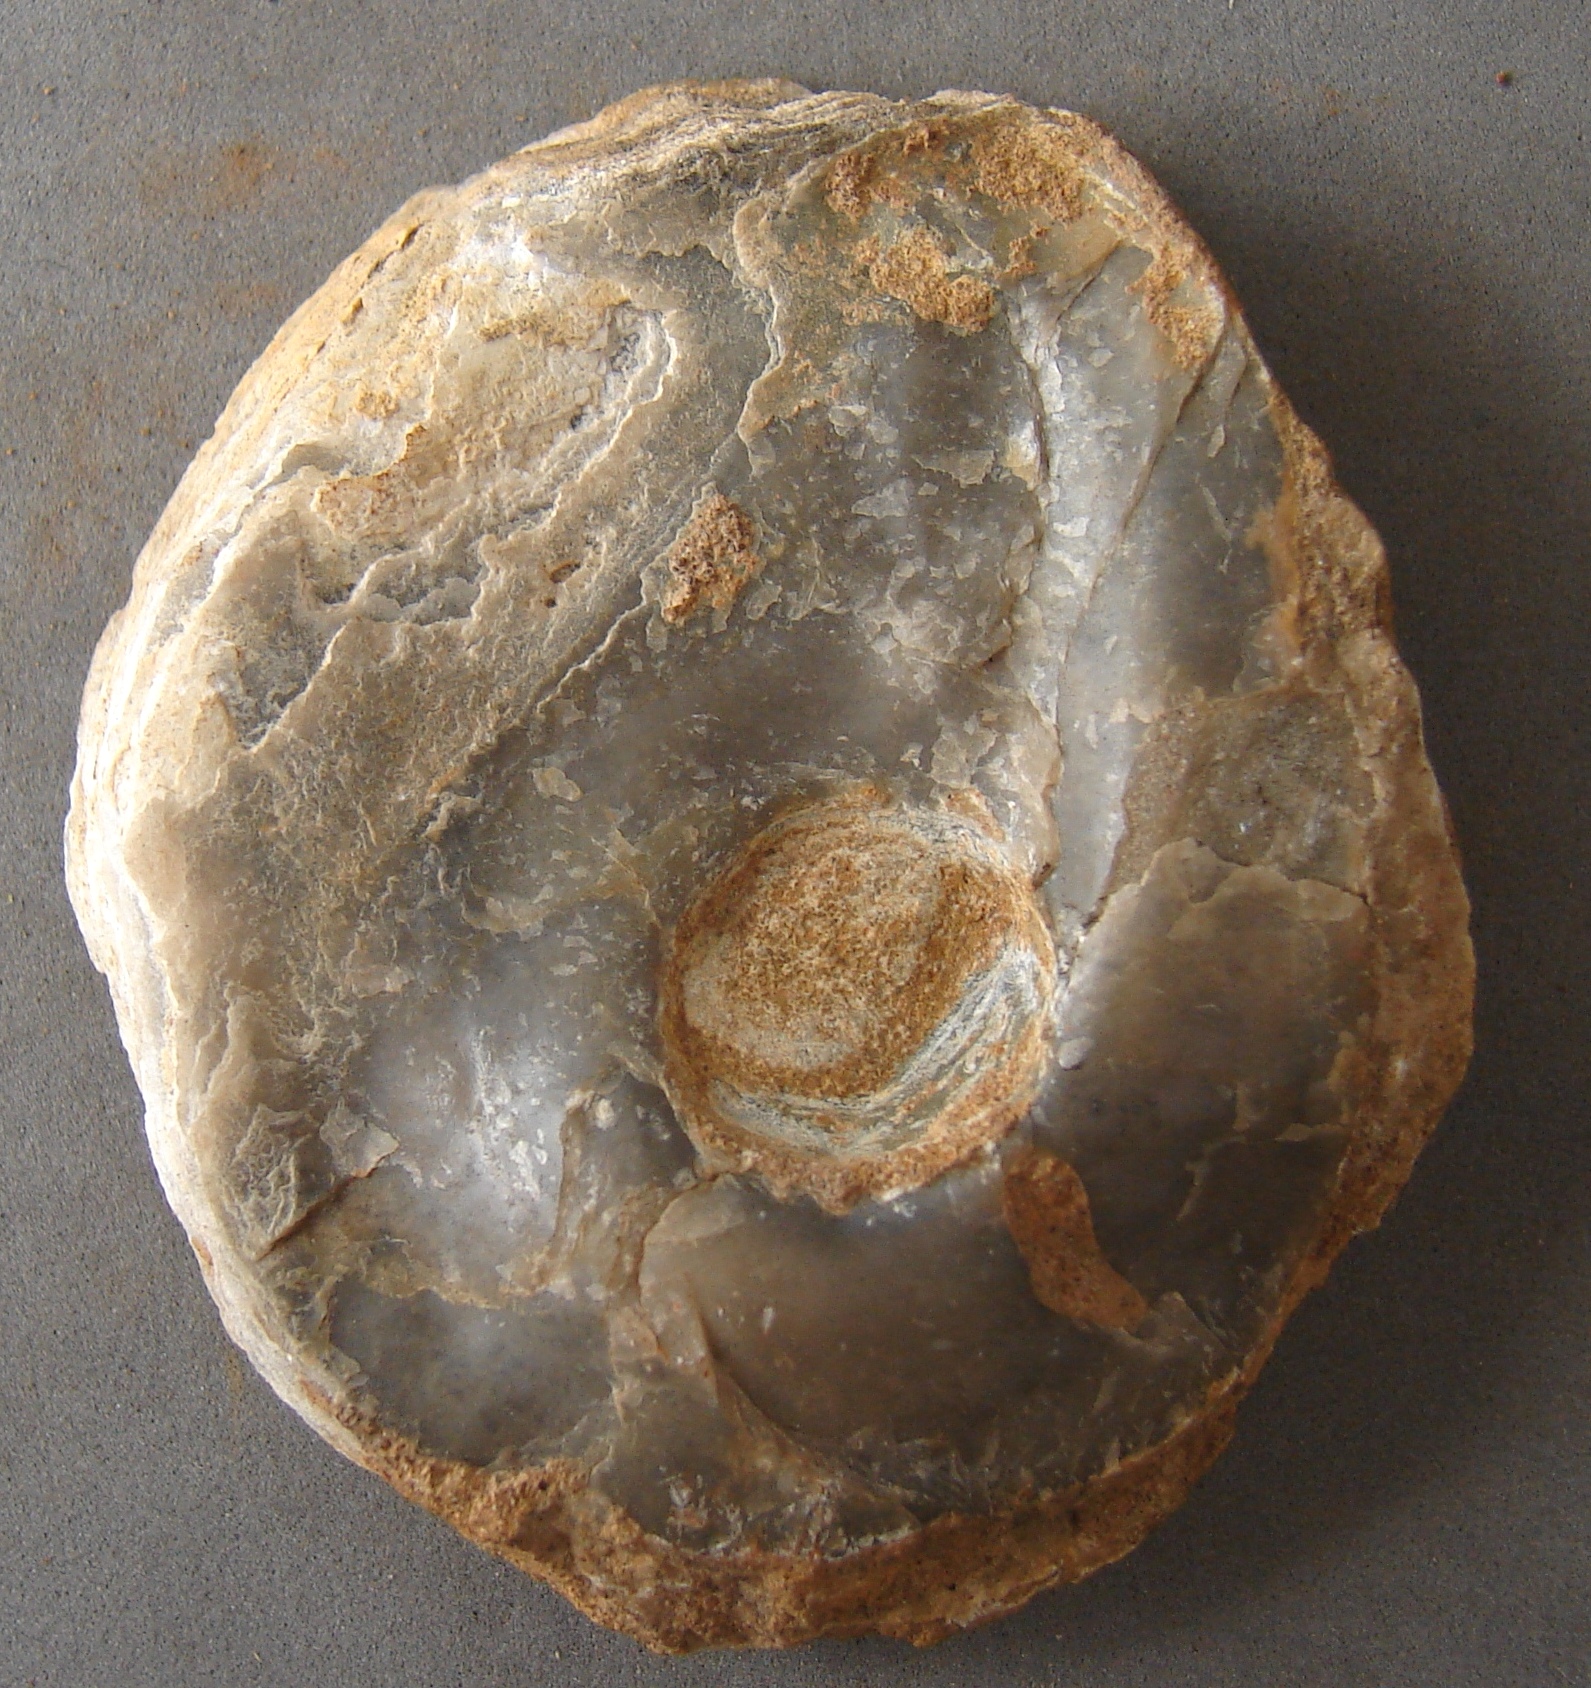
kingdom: Animalia
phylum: Mollusca
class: Bivalvia
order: Ostreida
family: Gryphaeidae
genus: Gryphaea
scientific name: Gryphaea
